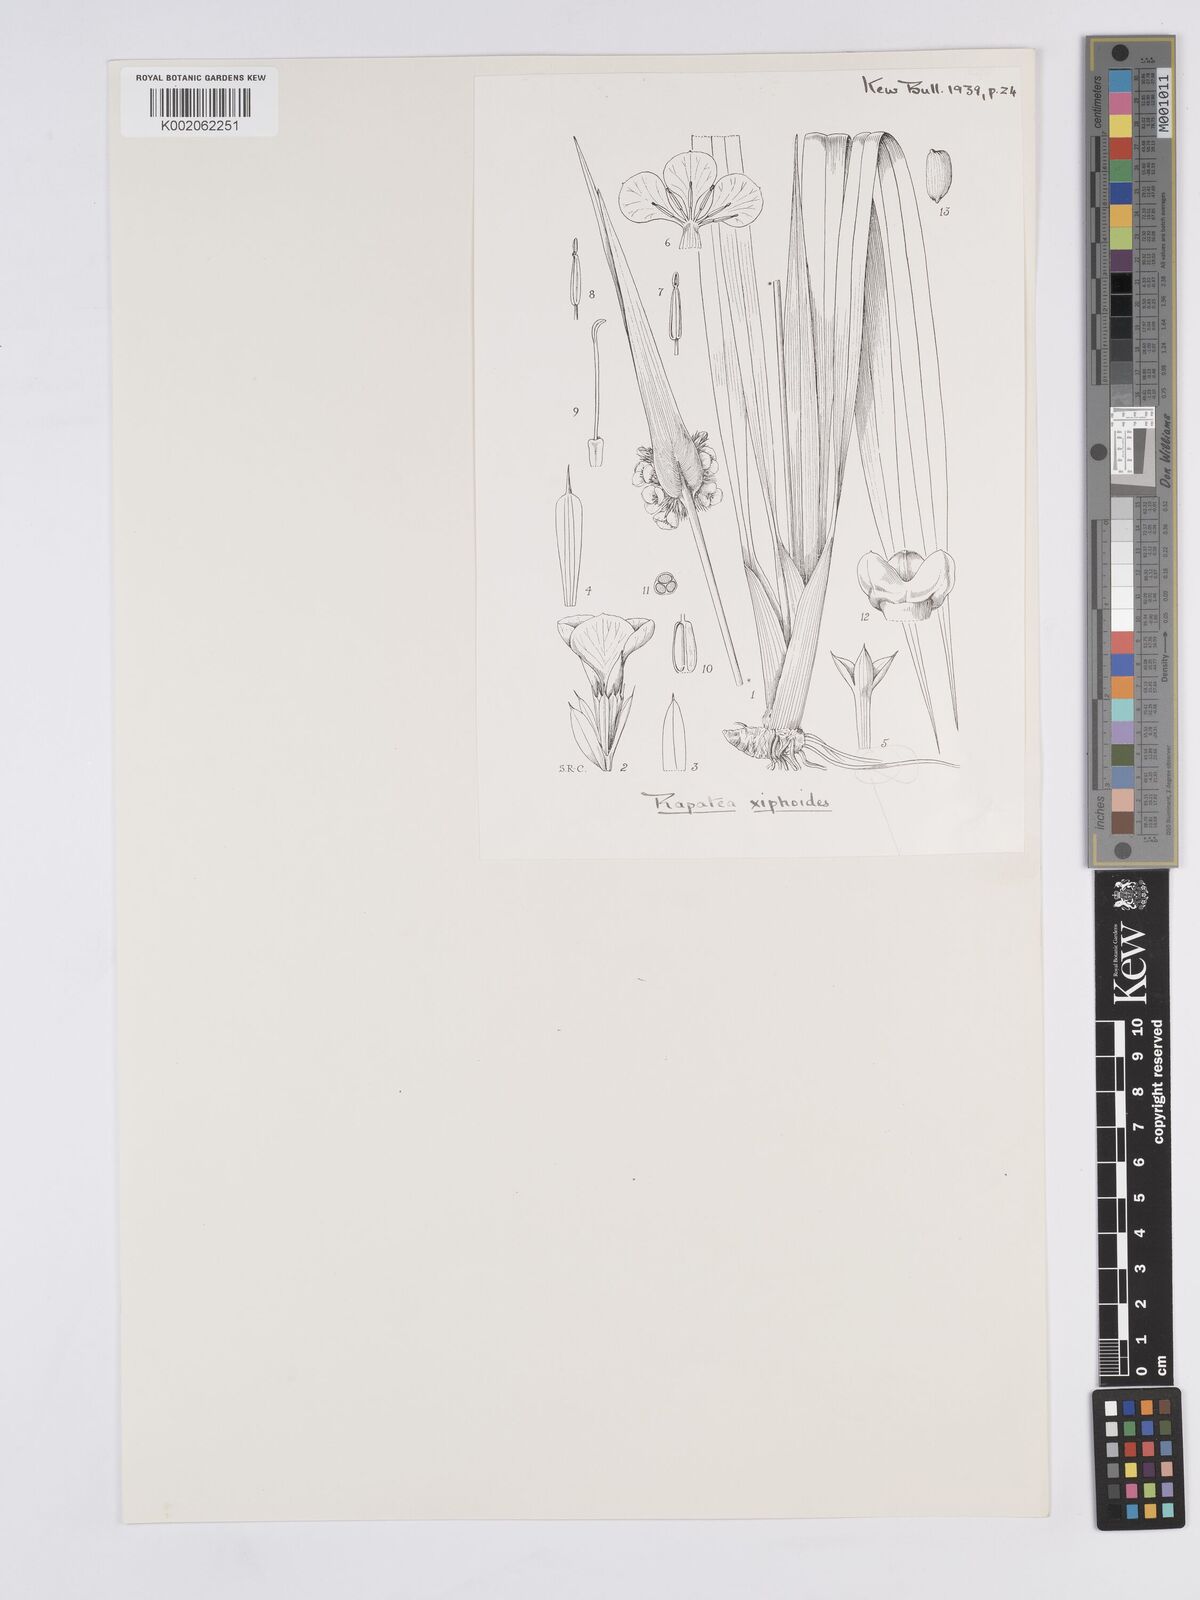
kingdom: Plantae
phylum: Tracheophyta
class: Liliopsida
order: Poales
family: Rapateaceae
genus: Rapatea
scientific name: Rapatea
